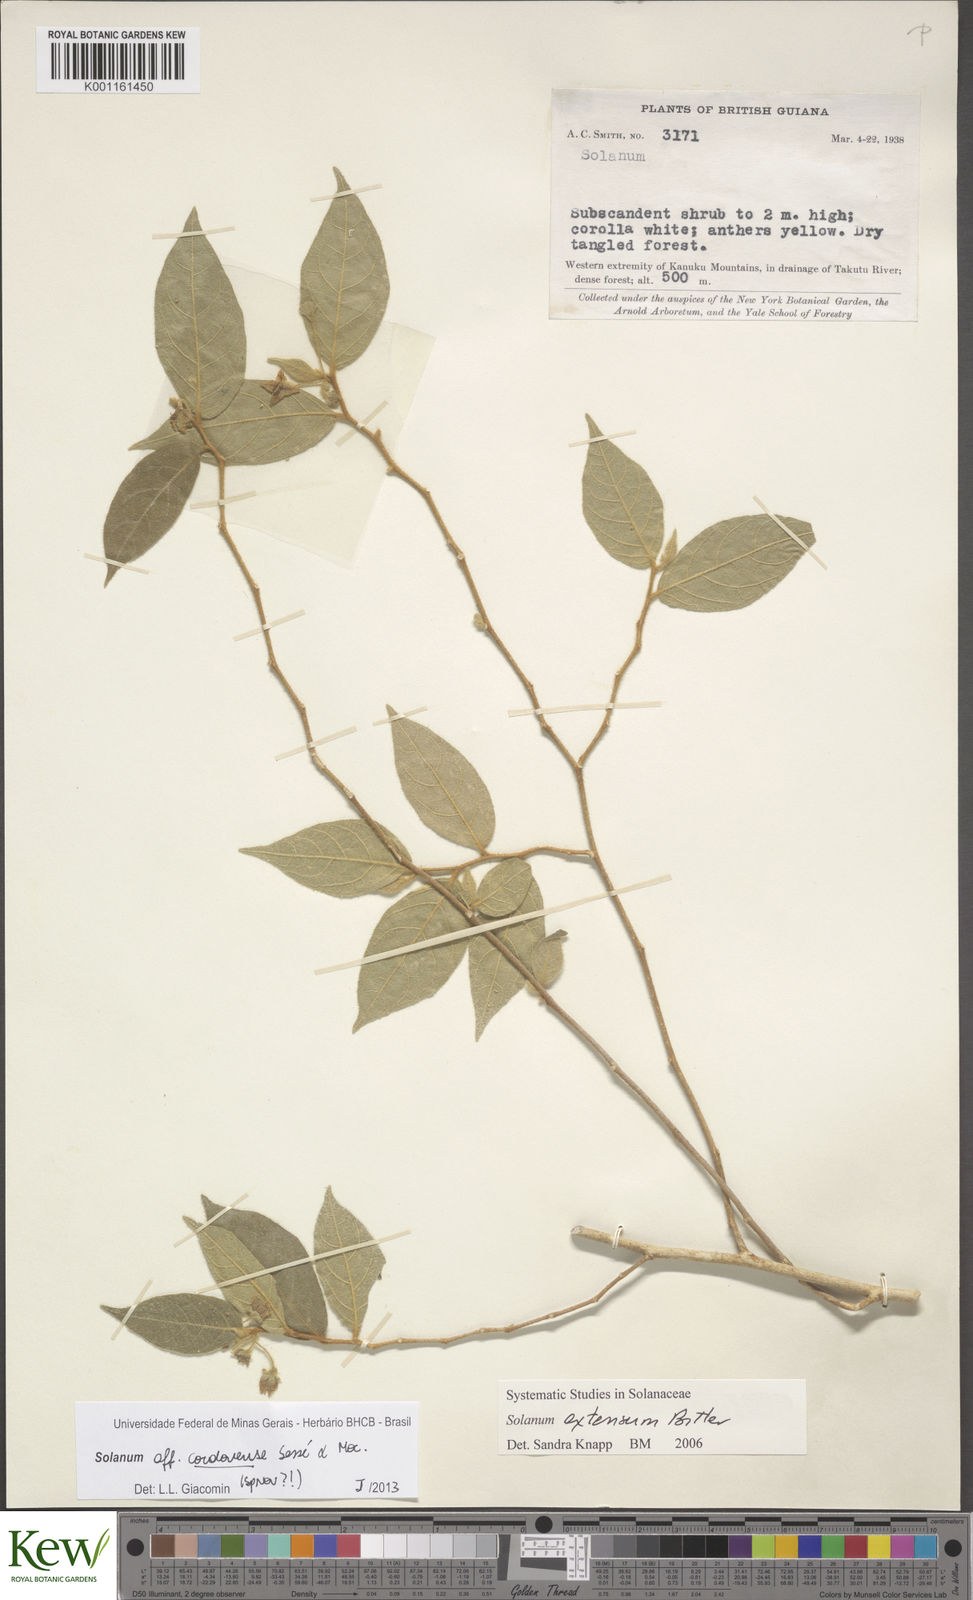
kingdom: Plantae
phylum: Tracheophyta
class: Magnoliopsida
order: Solanales
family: Solanaceae
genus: Solanum
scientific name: Solanum
